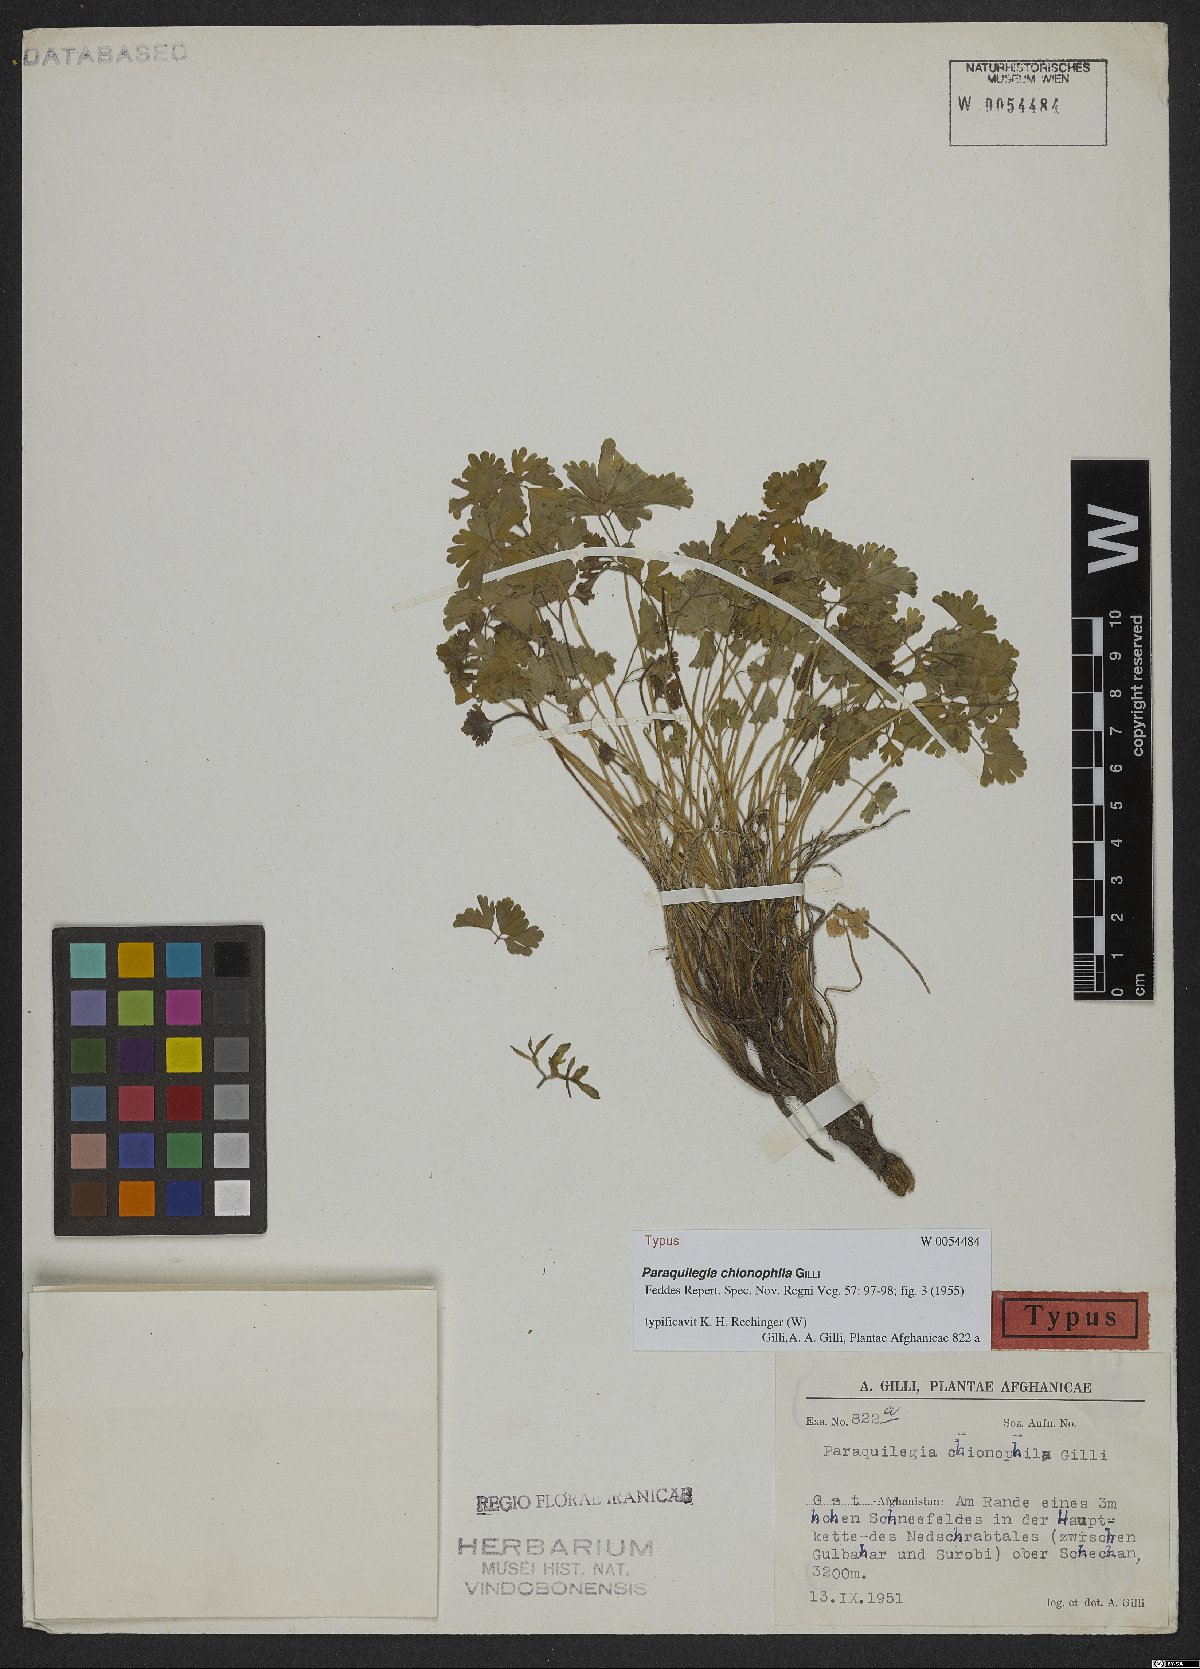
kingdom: Plantae
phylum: Tracheophyta
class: Magnoliopsida
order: Ranunculales
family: Ranunculaceae
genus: Paraquilegia
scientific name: Paraquilegia chionophila
